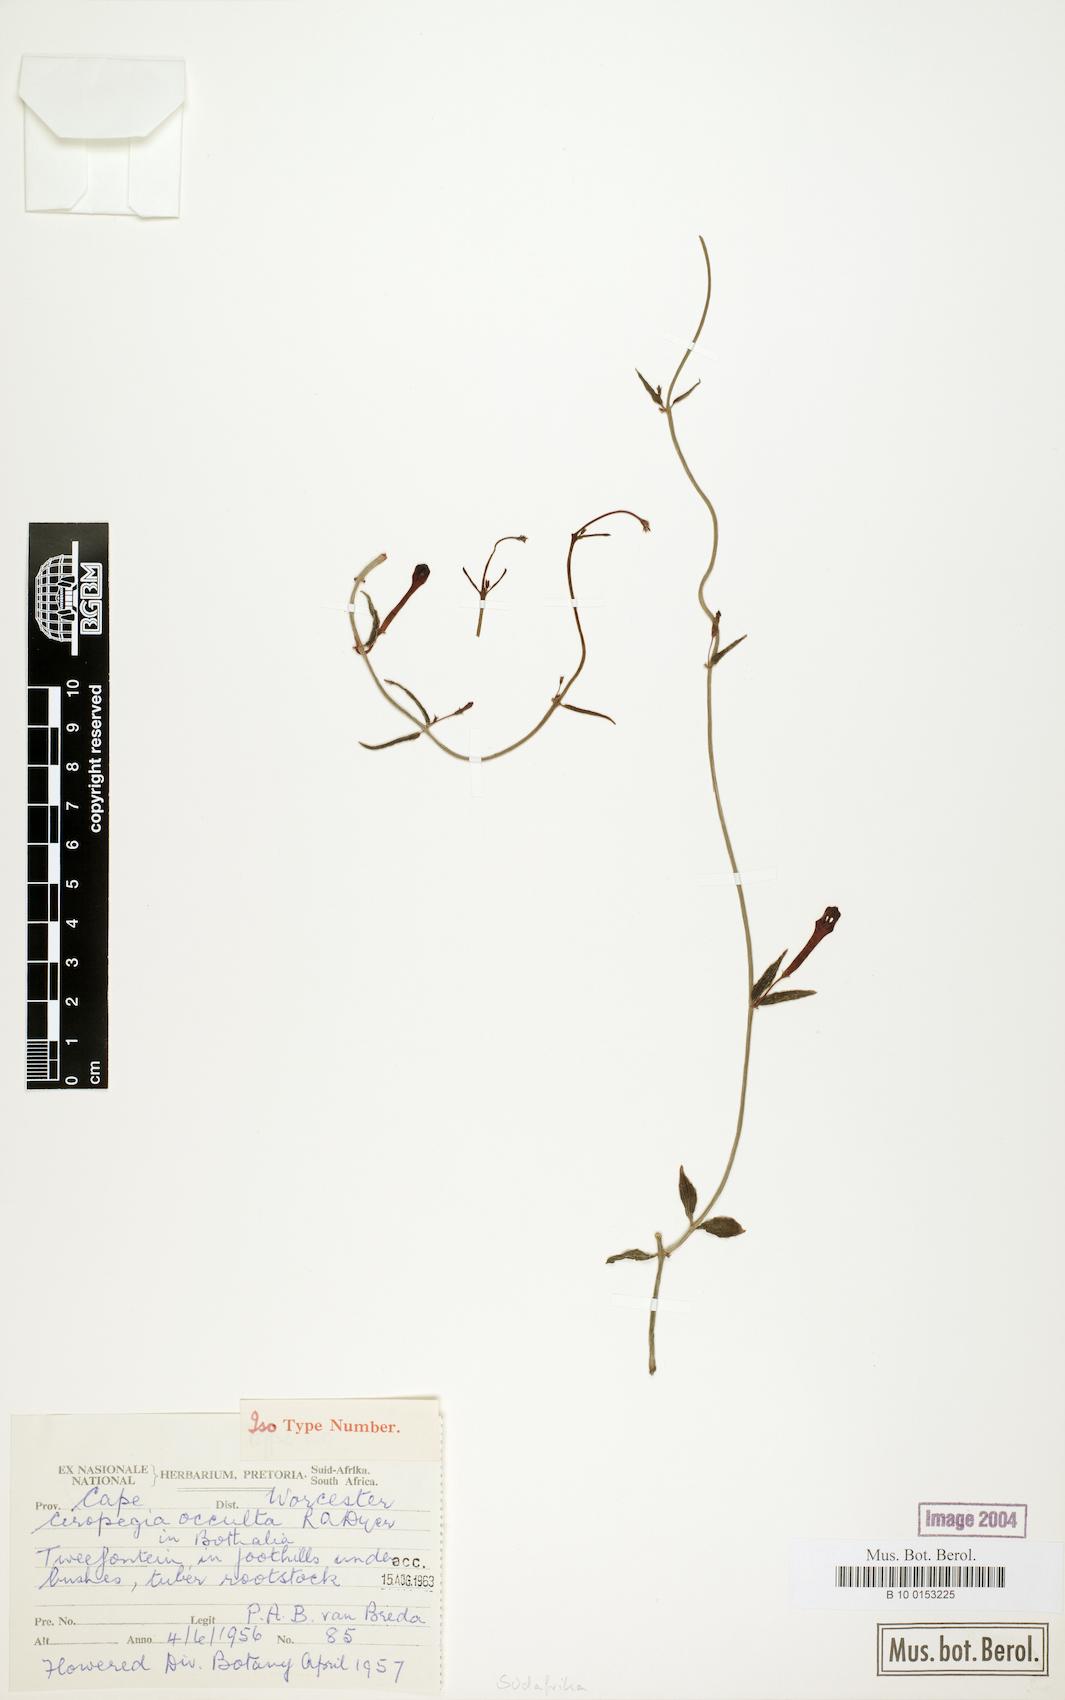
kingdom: Plantae
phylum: Tracheophyta
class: Magnoliopsida
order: Gentianales
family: Apocynaceae
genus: Ceropegia
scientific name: Ceropegia occulta
